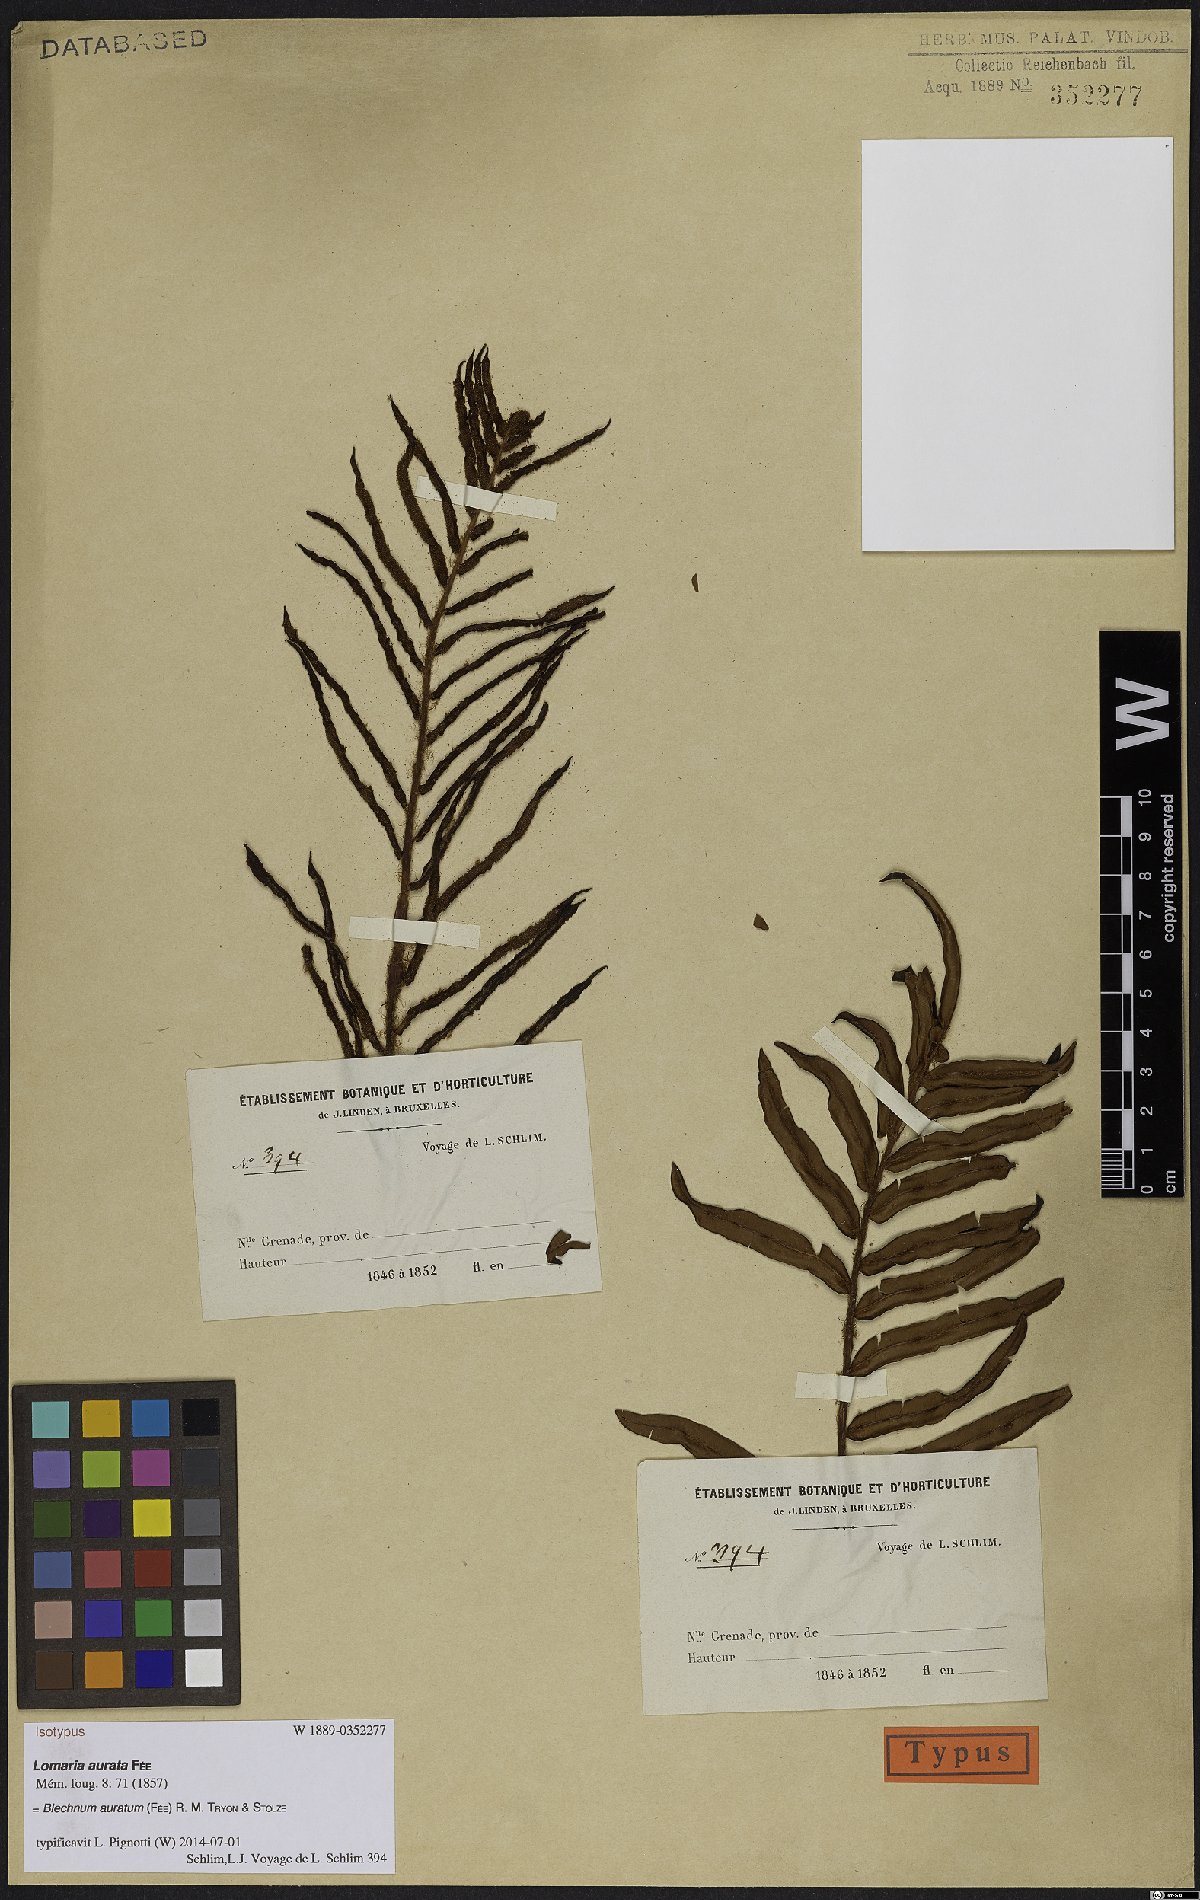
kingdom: Plantae
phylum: Tracheophyta
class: Polypodiopsida
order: Polypodiales
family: Blechnaceae
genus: Lomariocycas
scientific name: Lomariocycas aurata
